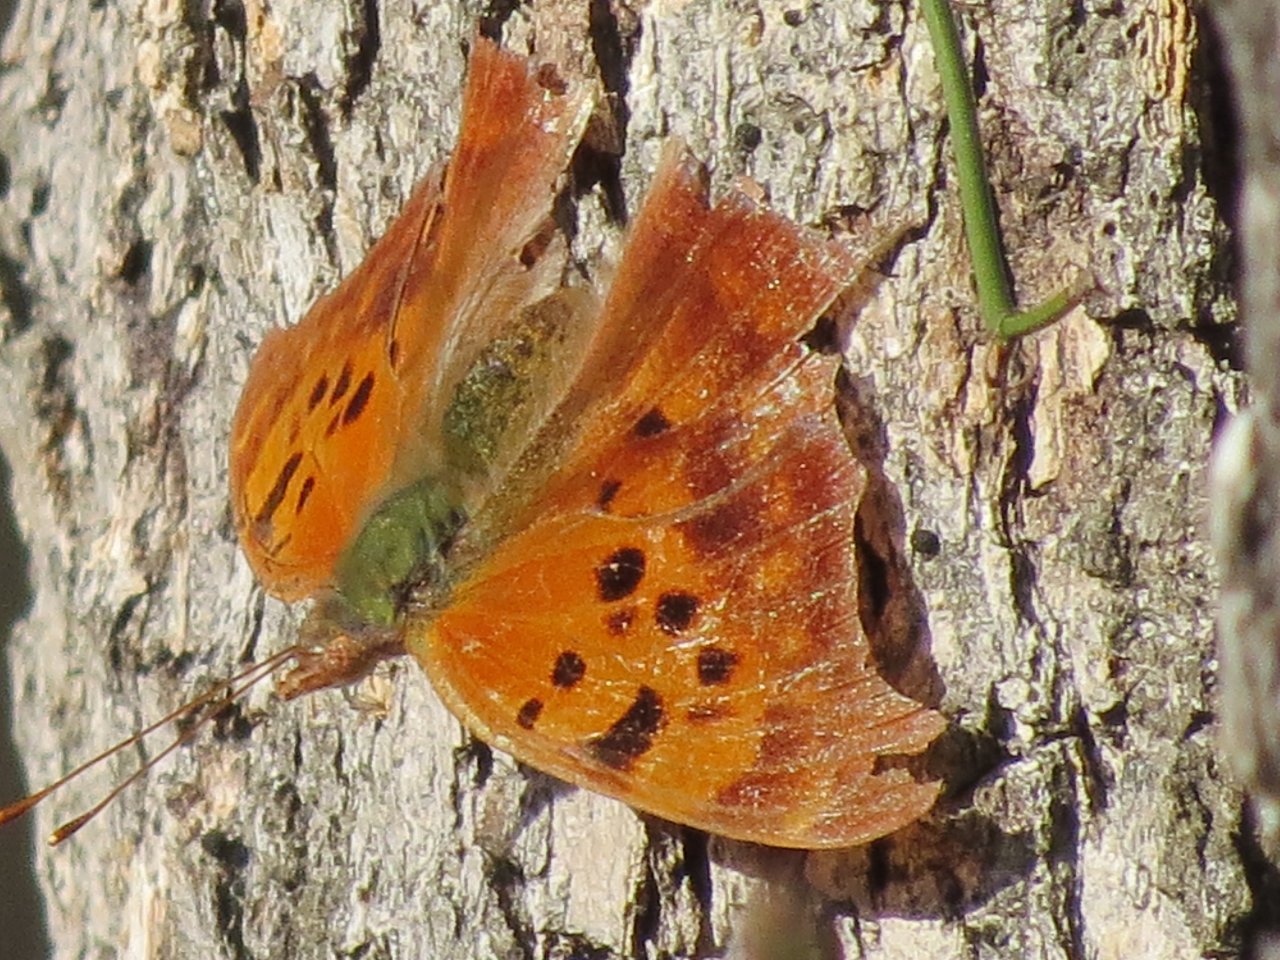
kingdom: Animalia
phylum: Arthropoda
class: Insecta
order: Lepidoptera
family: Nymphalidae
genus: Polygonia
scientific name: Polygonia interrogationis
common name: Question Mark
